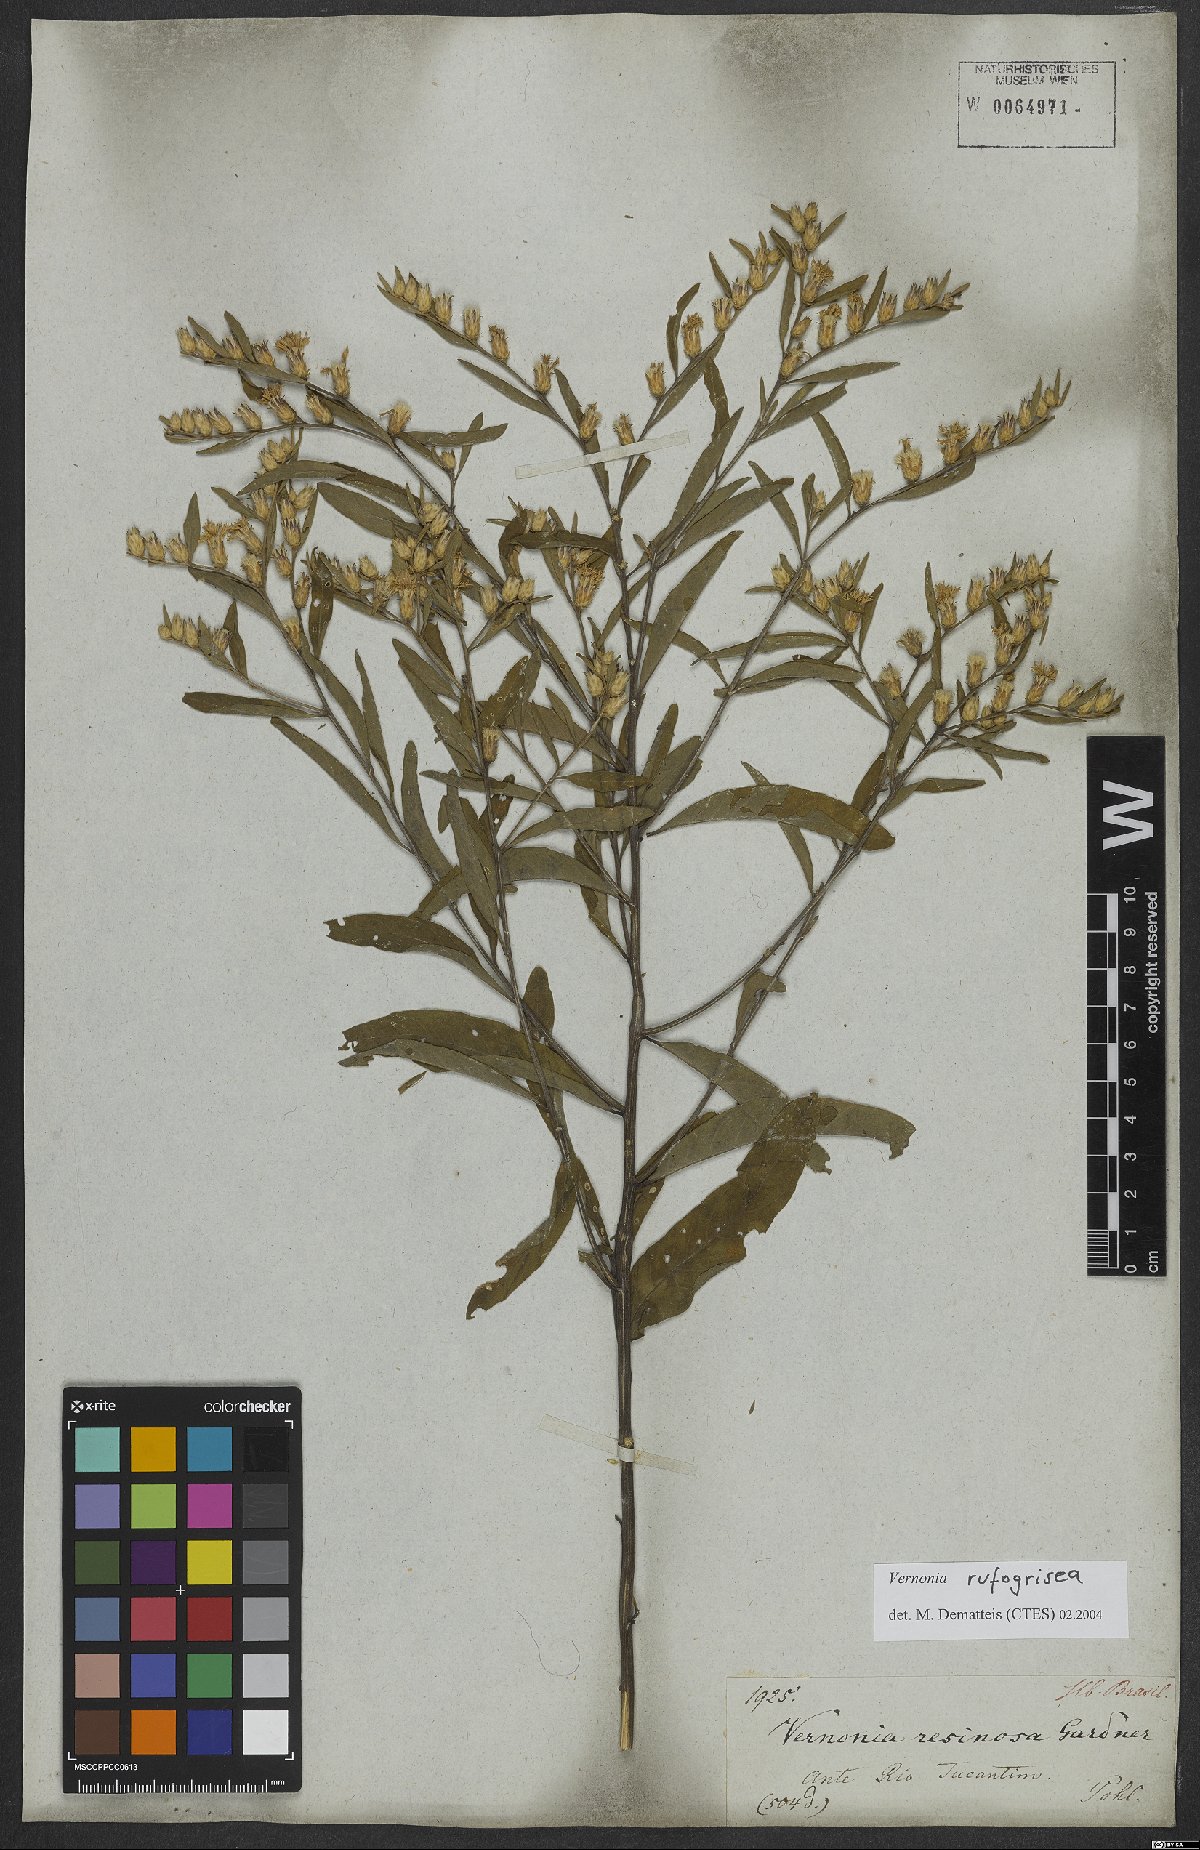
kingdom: Plantae
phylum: Tracheophyta
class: Magnoliopsida
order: Asterales
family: Asteraceae
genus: Lepidaploa
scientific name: Lepidaploa rufogrisea
